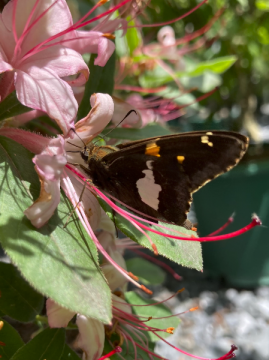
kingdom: Animalia
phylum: Arthropoda
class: Insecta
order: Lepidoptera
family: Hesperiidae
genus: Epargyreus
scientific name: Epargyreus clarus
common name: Silver-spotted Skipper
